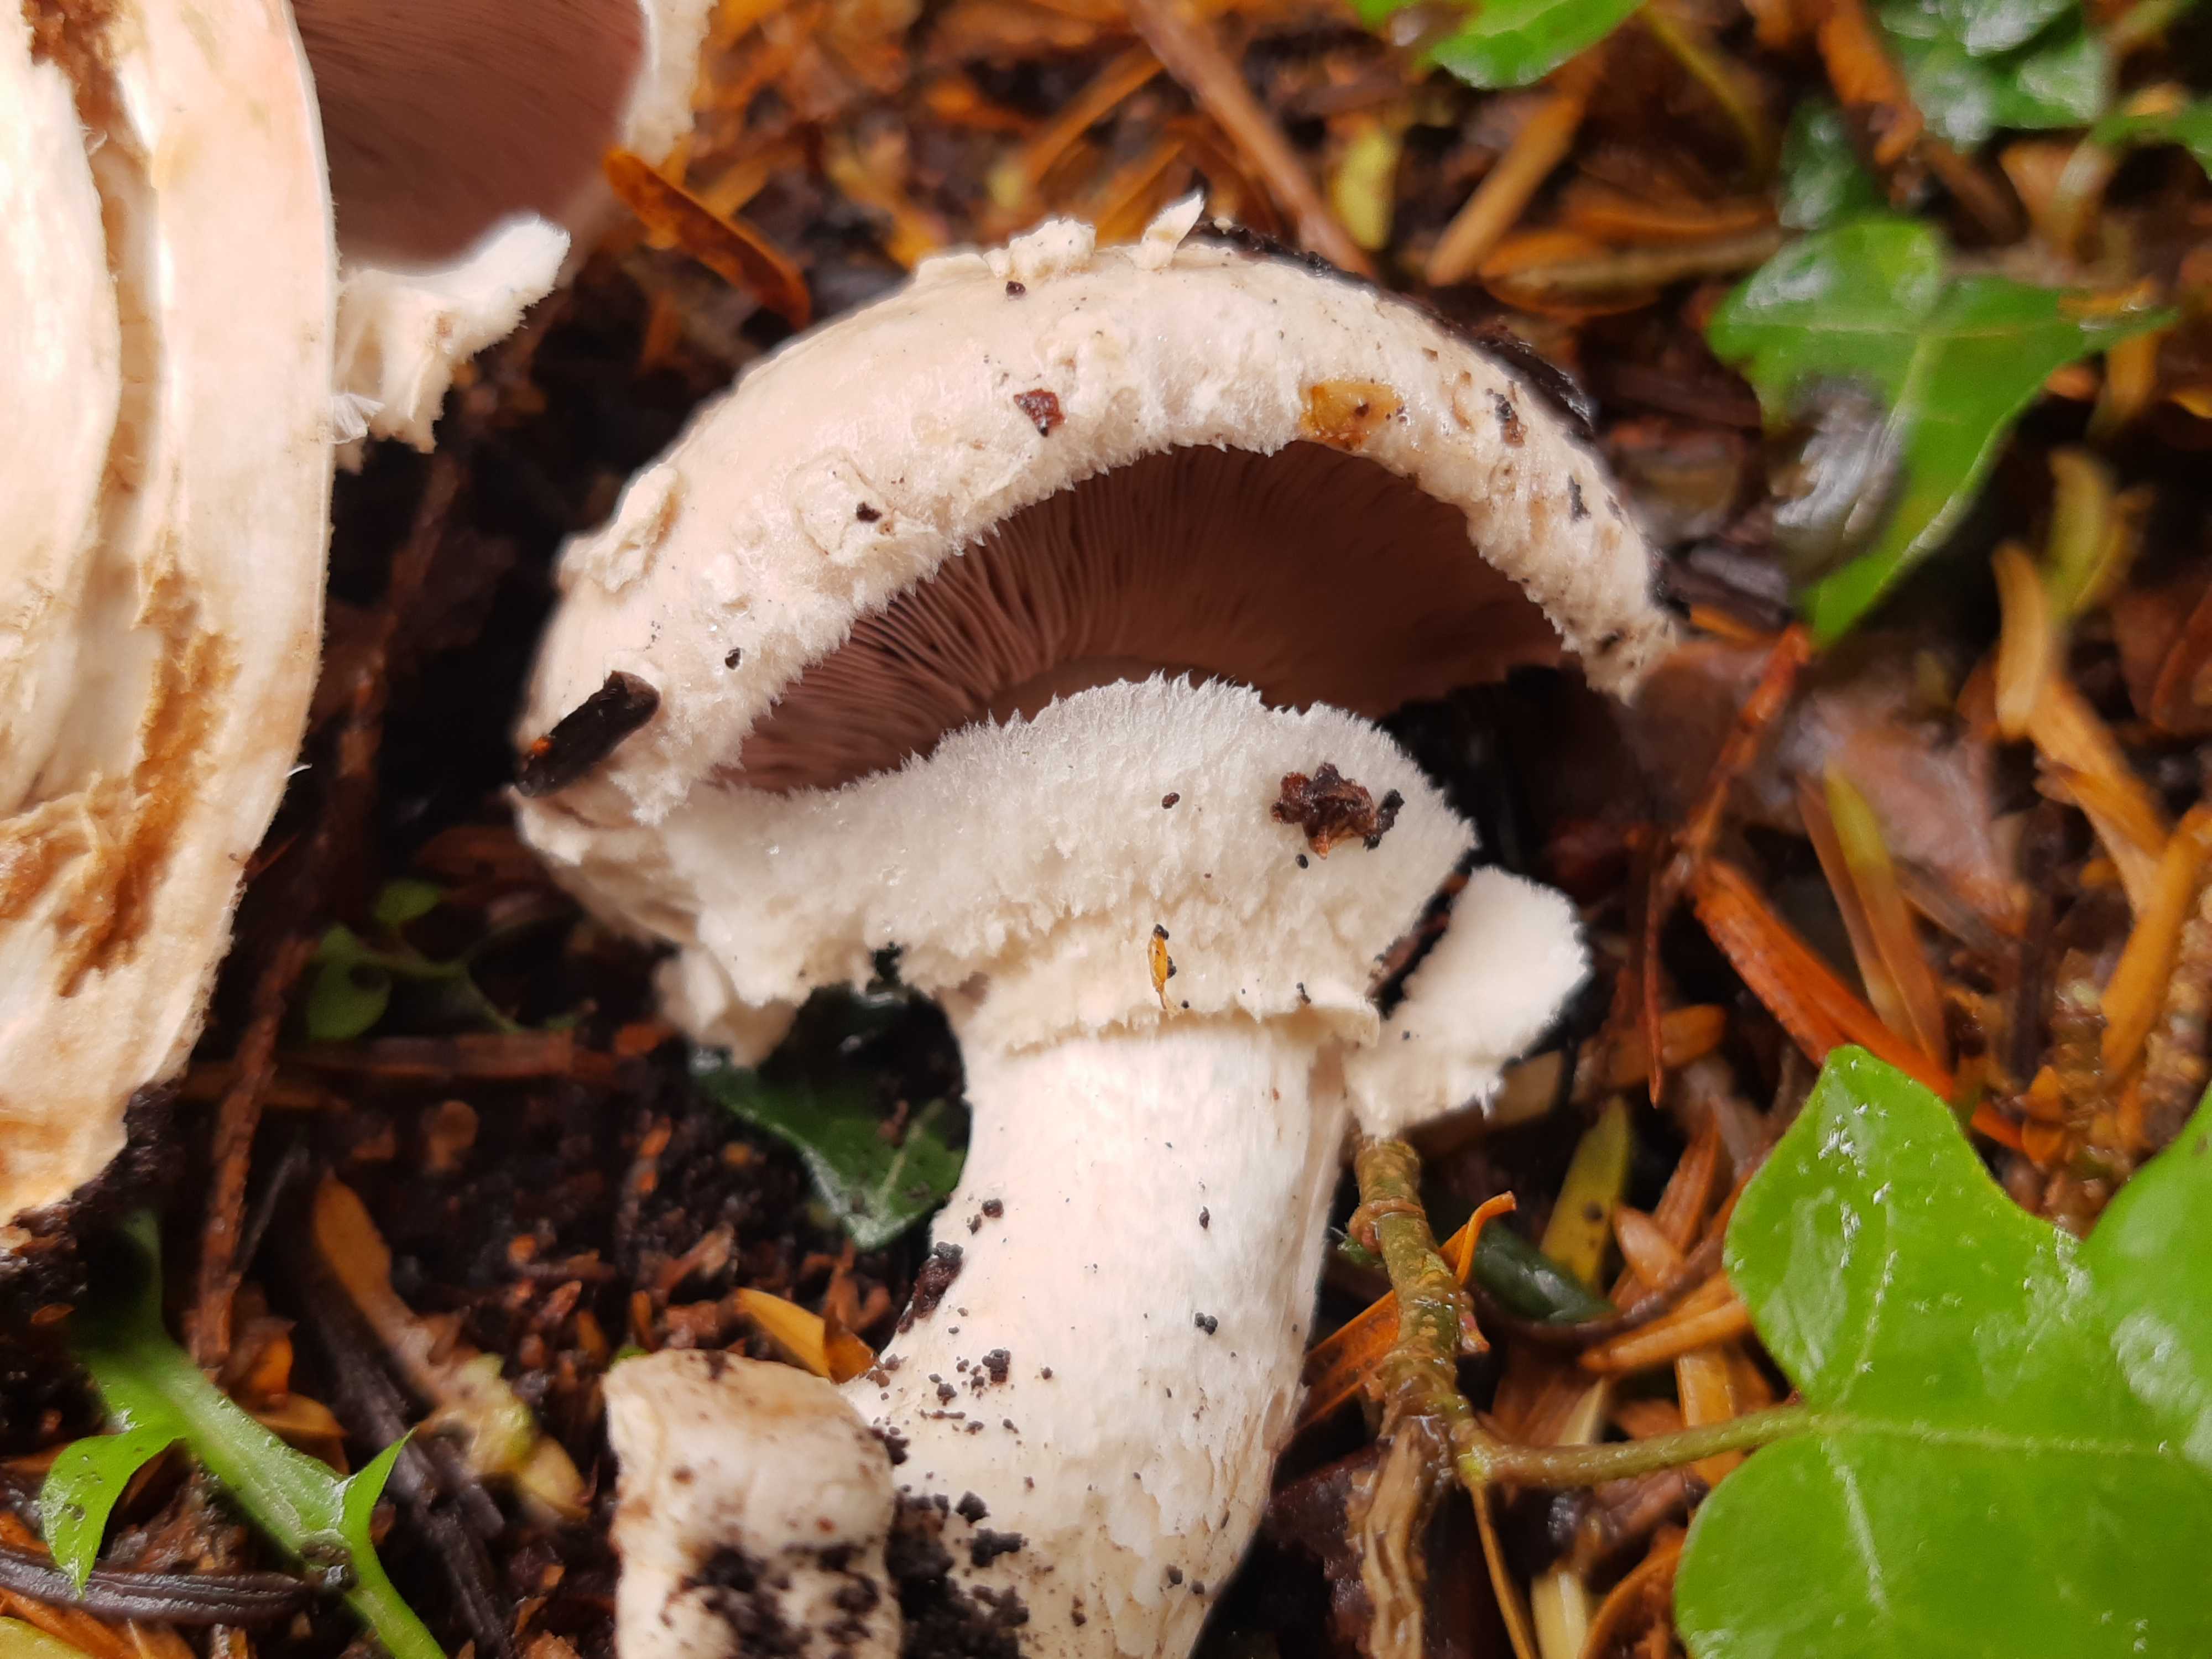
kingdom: Fungi
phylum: Basidiomycota
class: Agaricomycetes
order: Agaricales
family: Agaricaceae
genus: Agaricus
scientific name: Agaricus
